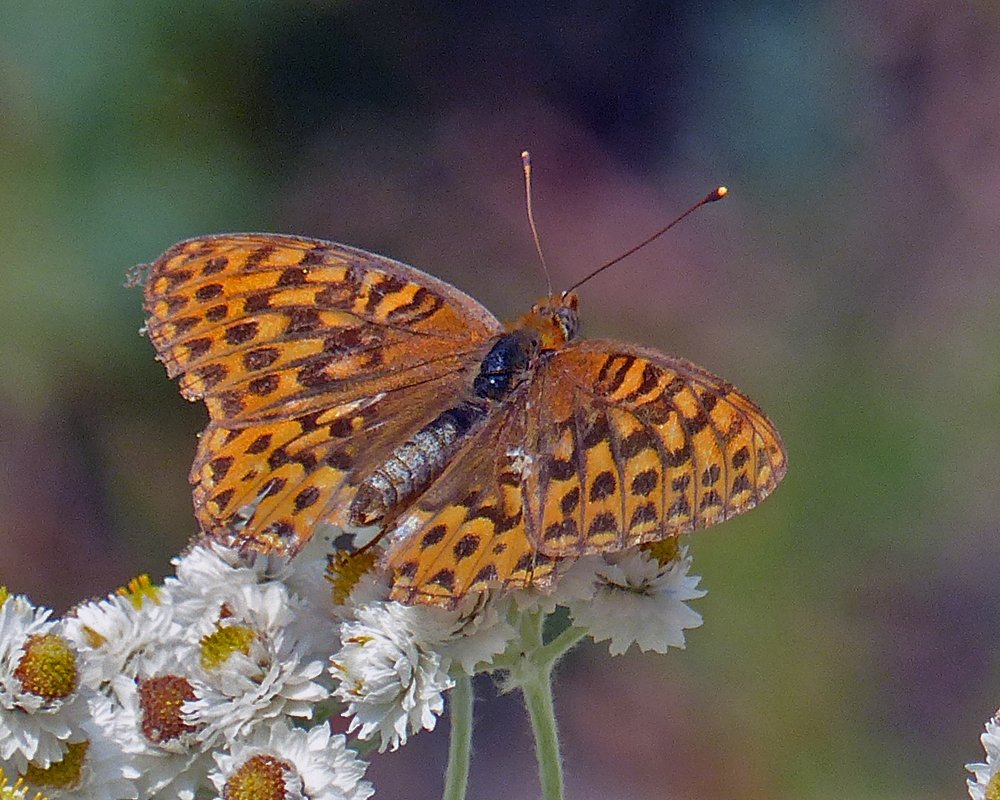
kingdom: Animalia
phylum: Arthropoda
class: Insecta
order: Lepidoptera
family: Nymphalidae
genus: Speyeria
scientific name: Speyeria hydaspe
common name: Hydaspe Fritillary
